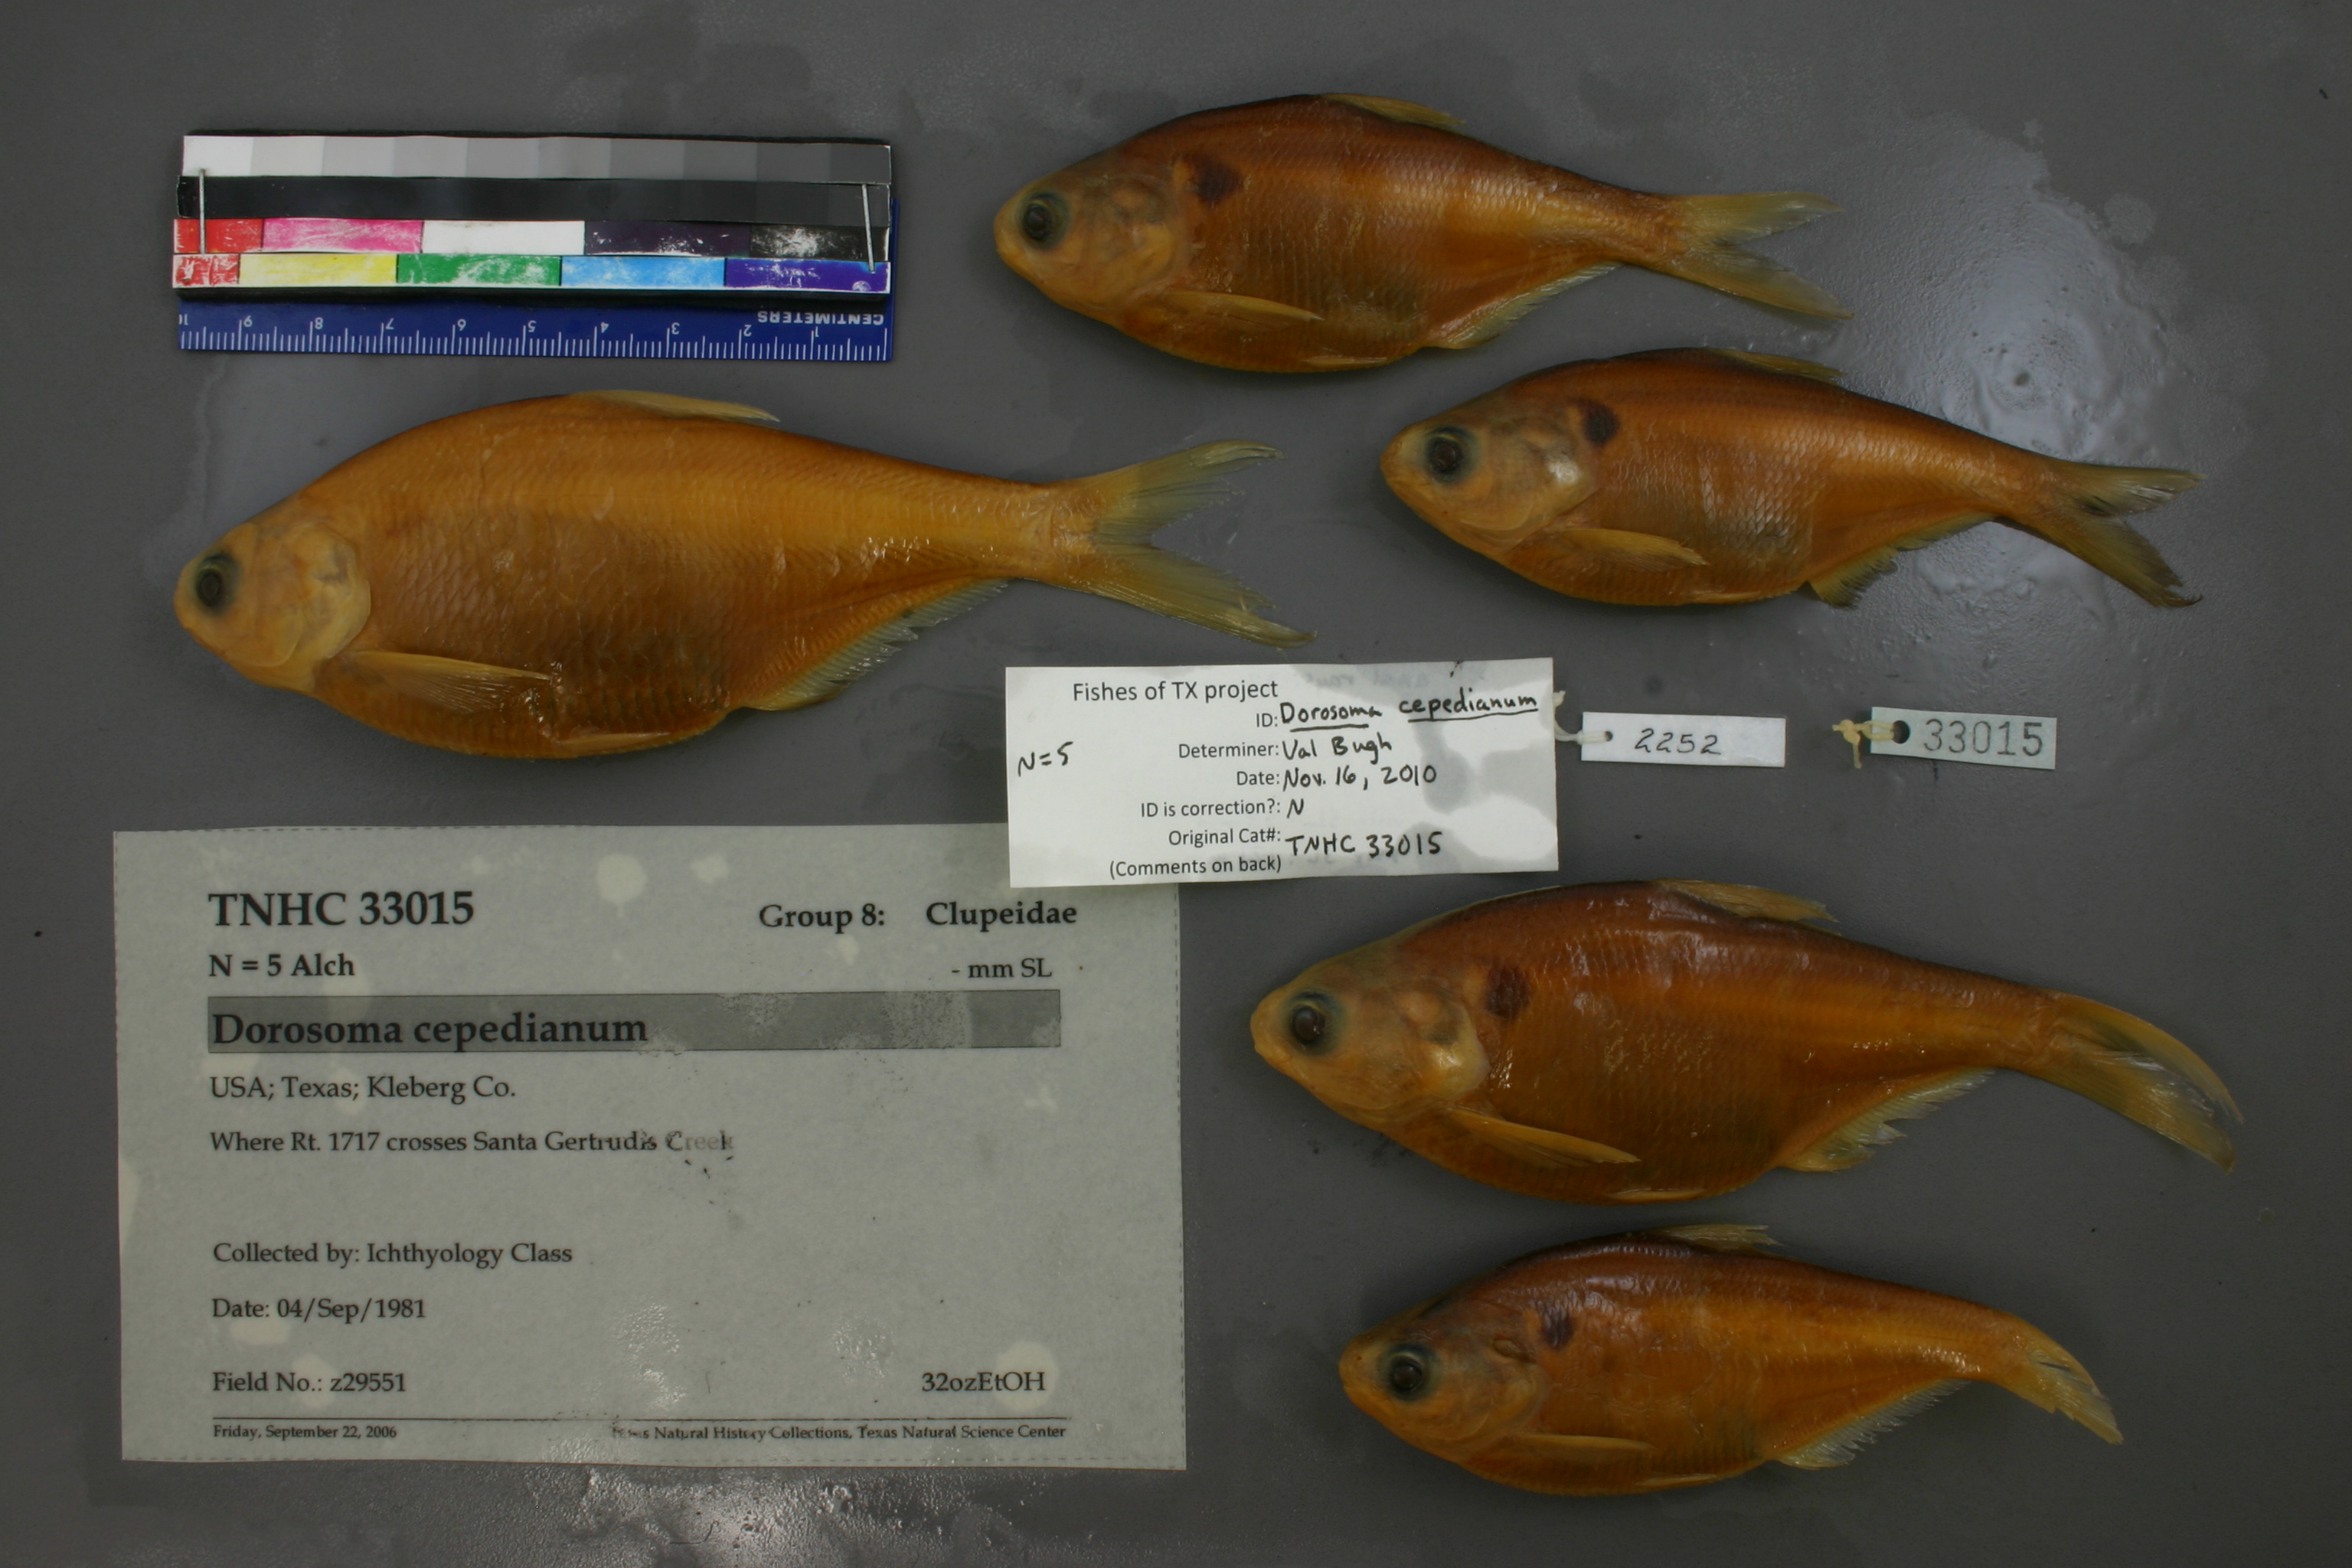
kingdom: Animalia
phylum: Chordata
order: Clupeiformes
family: Clupeidae
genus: Dorosoma
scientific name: Dorosoma cepedianum
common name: Gizzard shad
